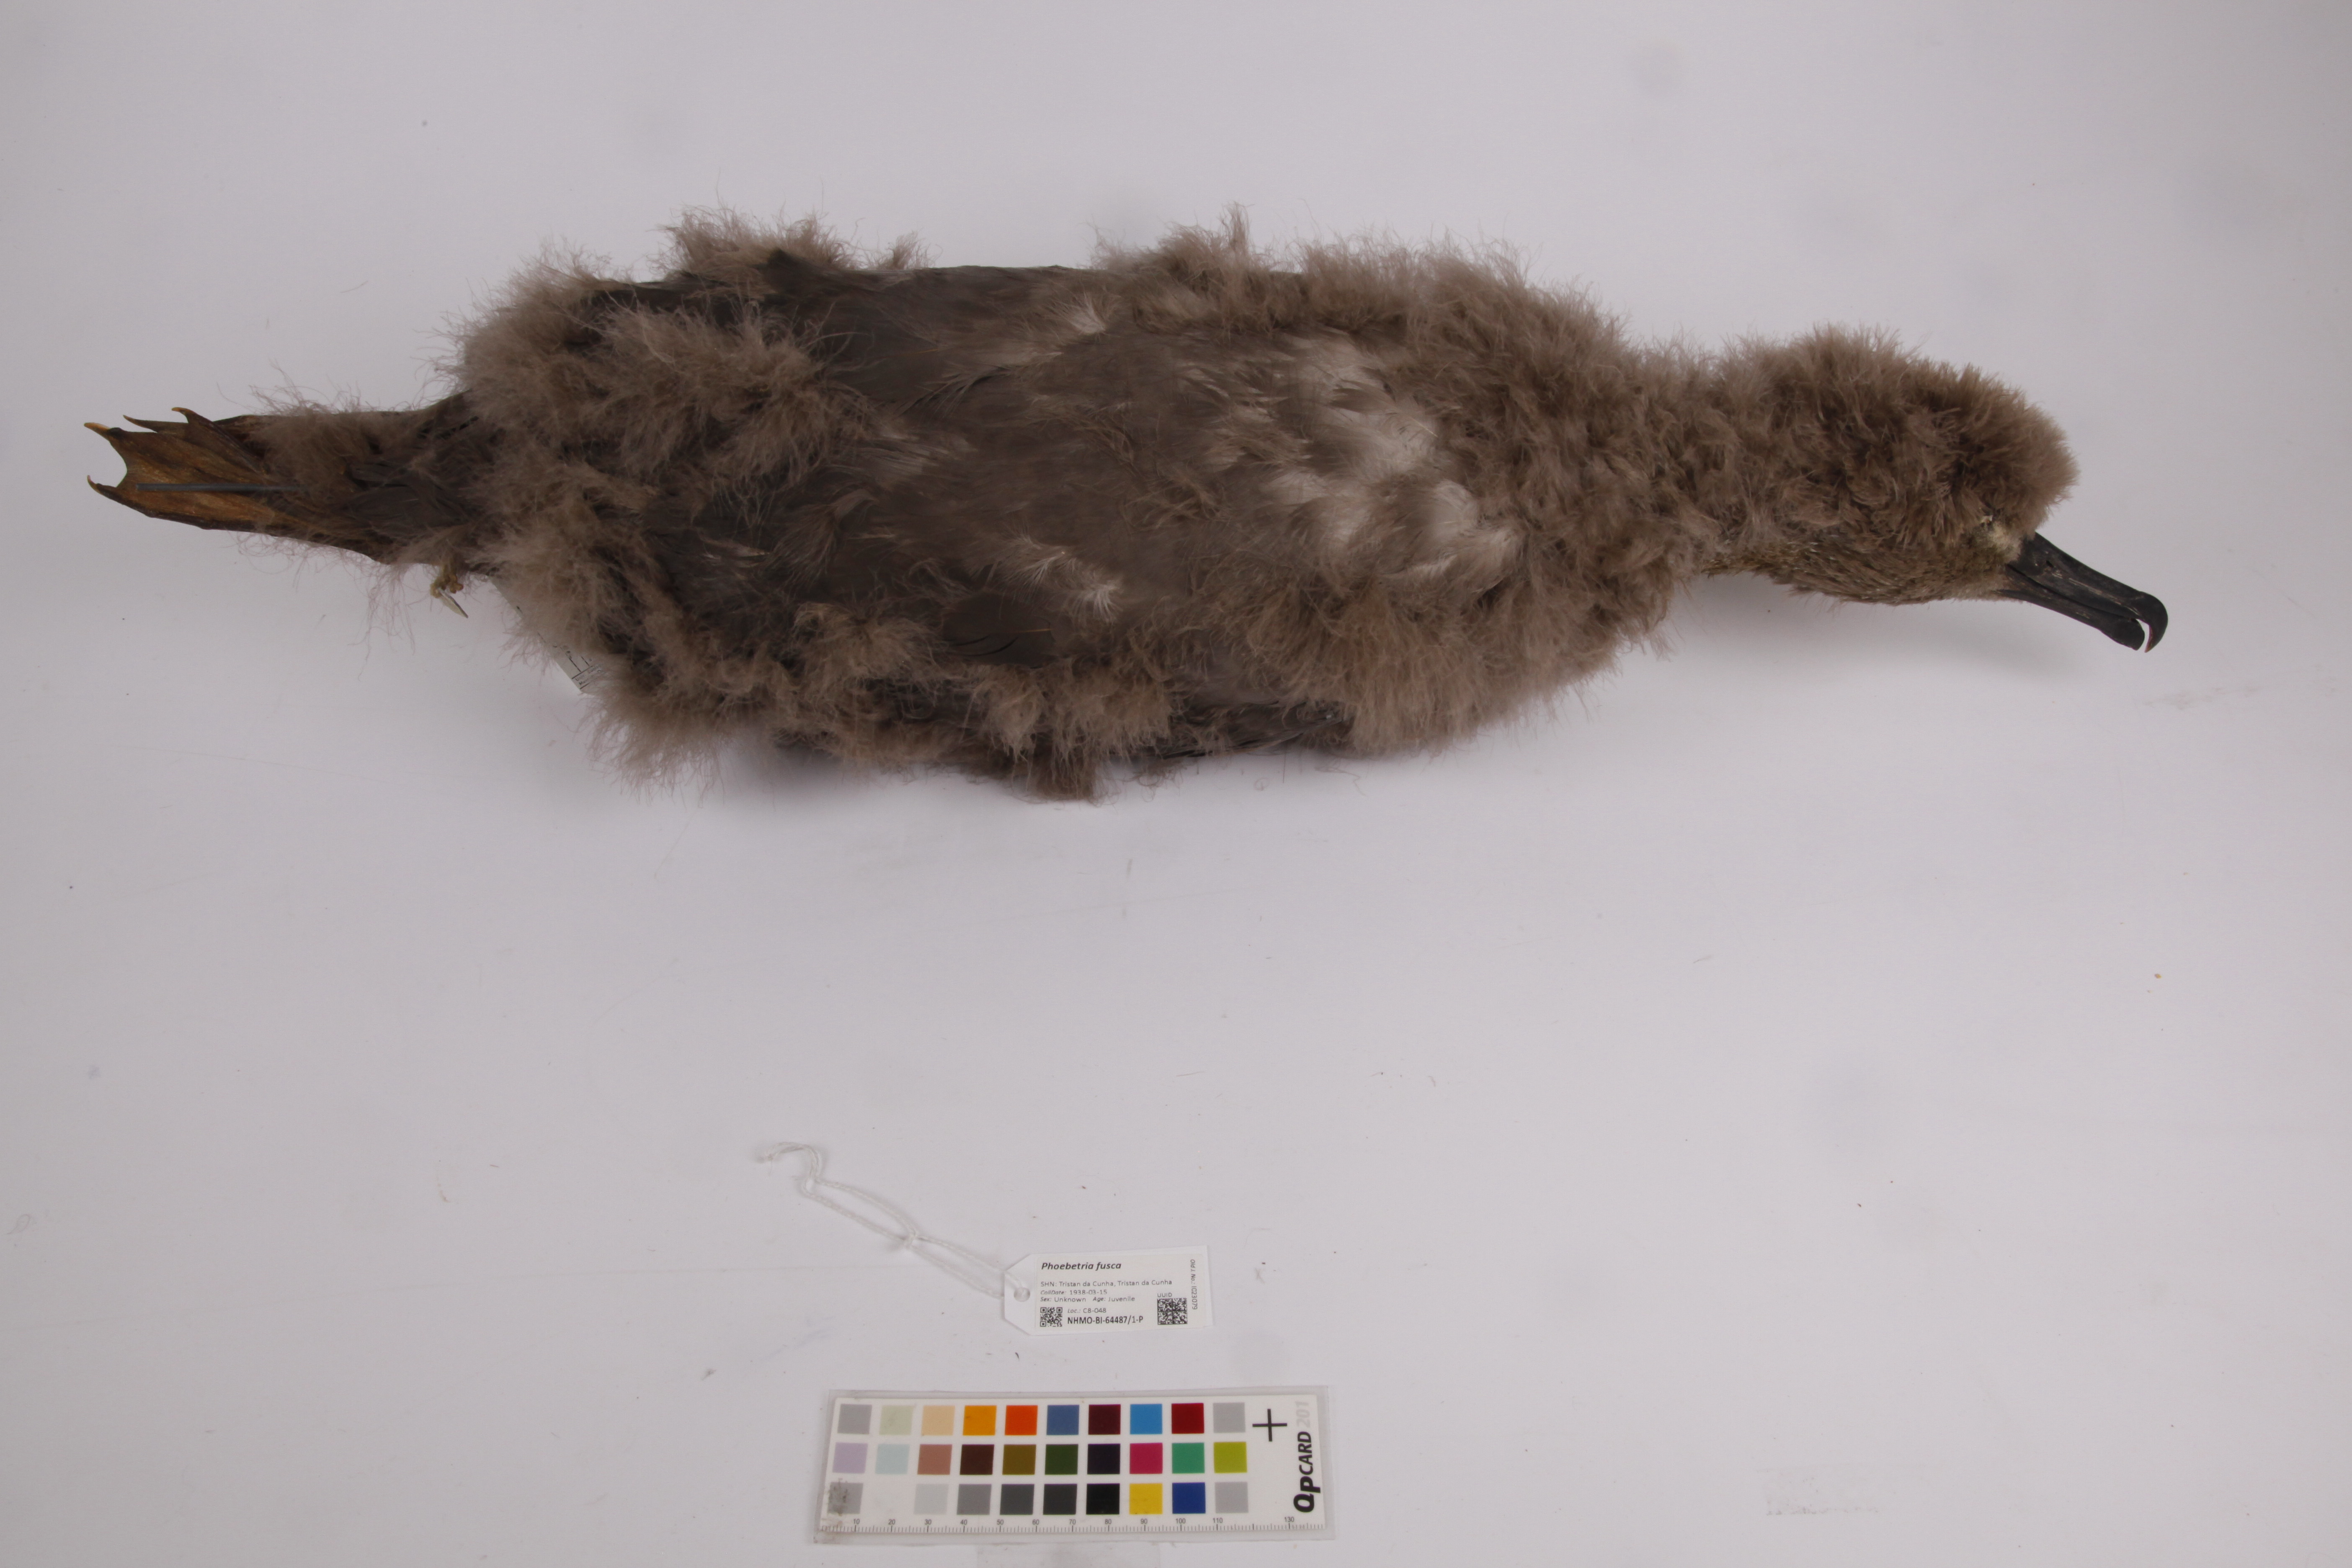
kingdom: Animalia
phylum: Chordata
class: Aves
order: Procellariiformes
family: Diomedeidae
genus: Phoebetria
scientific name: Phoebetria fusca
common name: Sooty albatross
